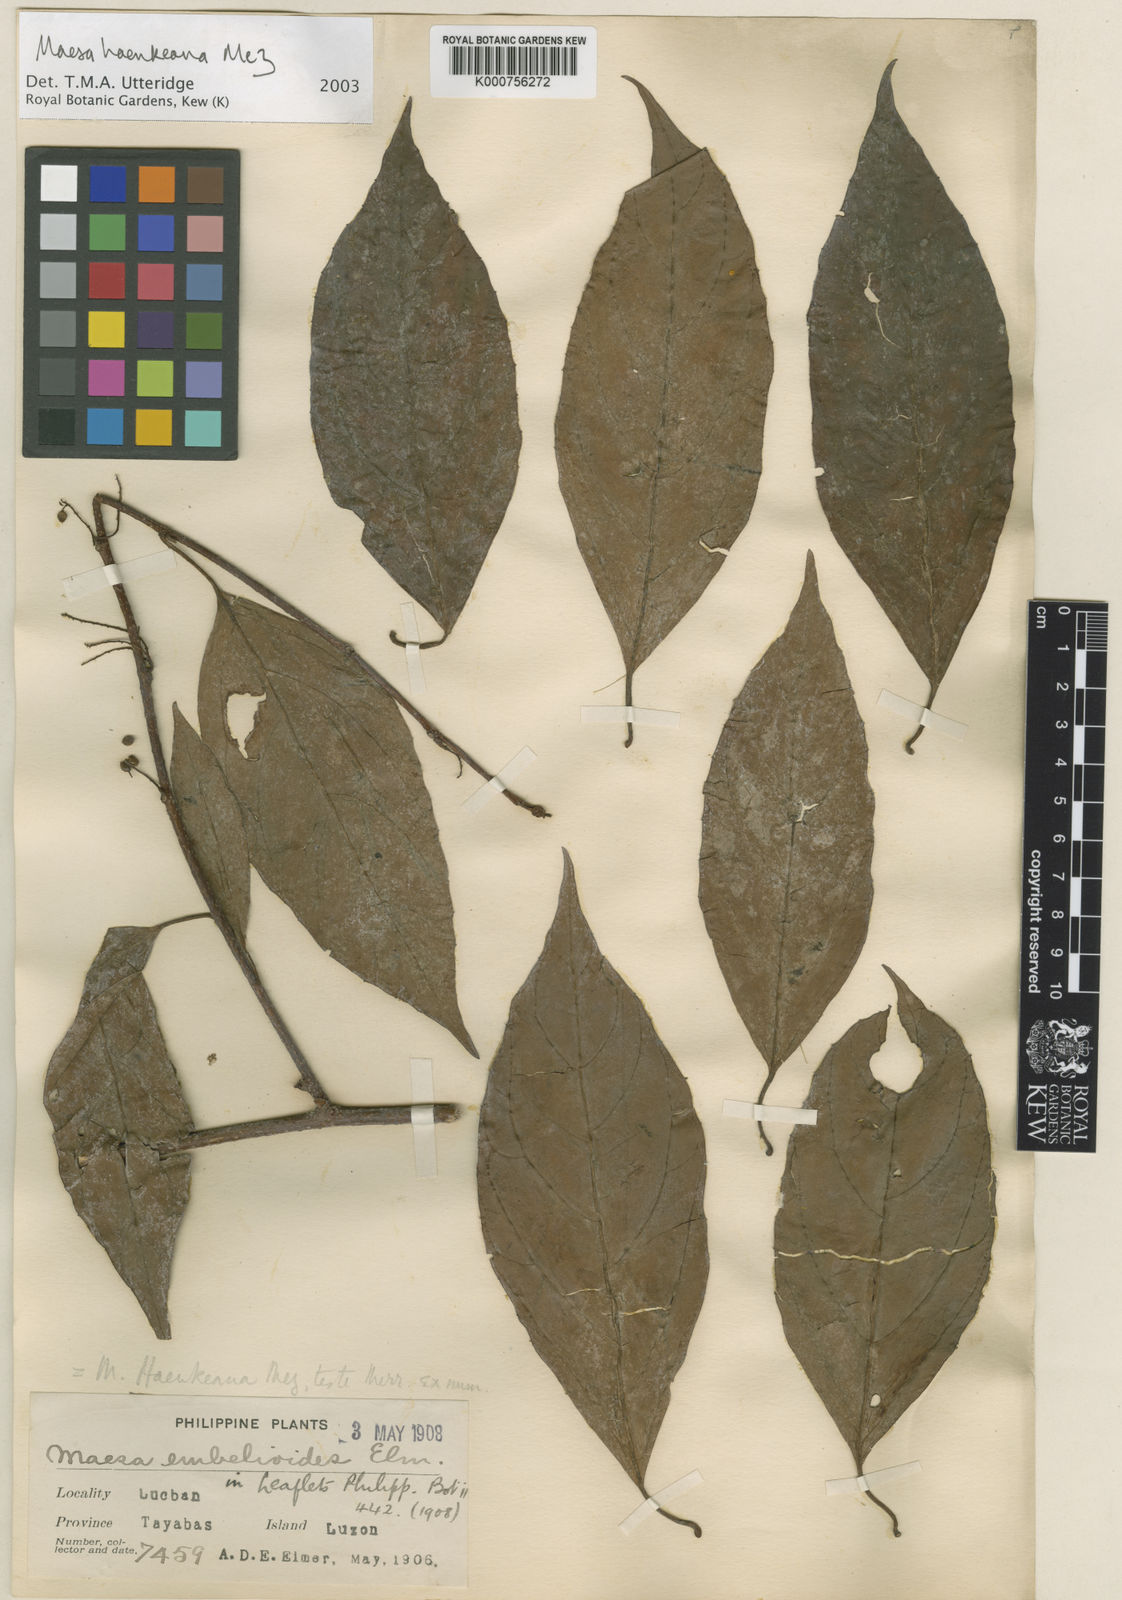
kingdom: Plantae
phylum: Tracheophyta
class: Magnoliopsida
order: Ericales
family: Primulaceae
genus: Maesa
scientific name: Maesa haenkeana
